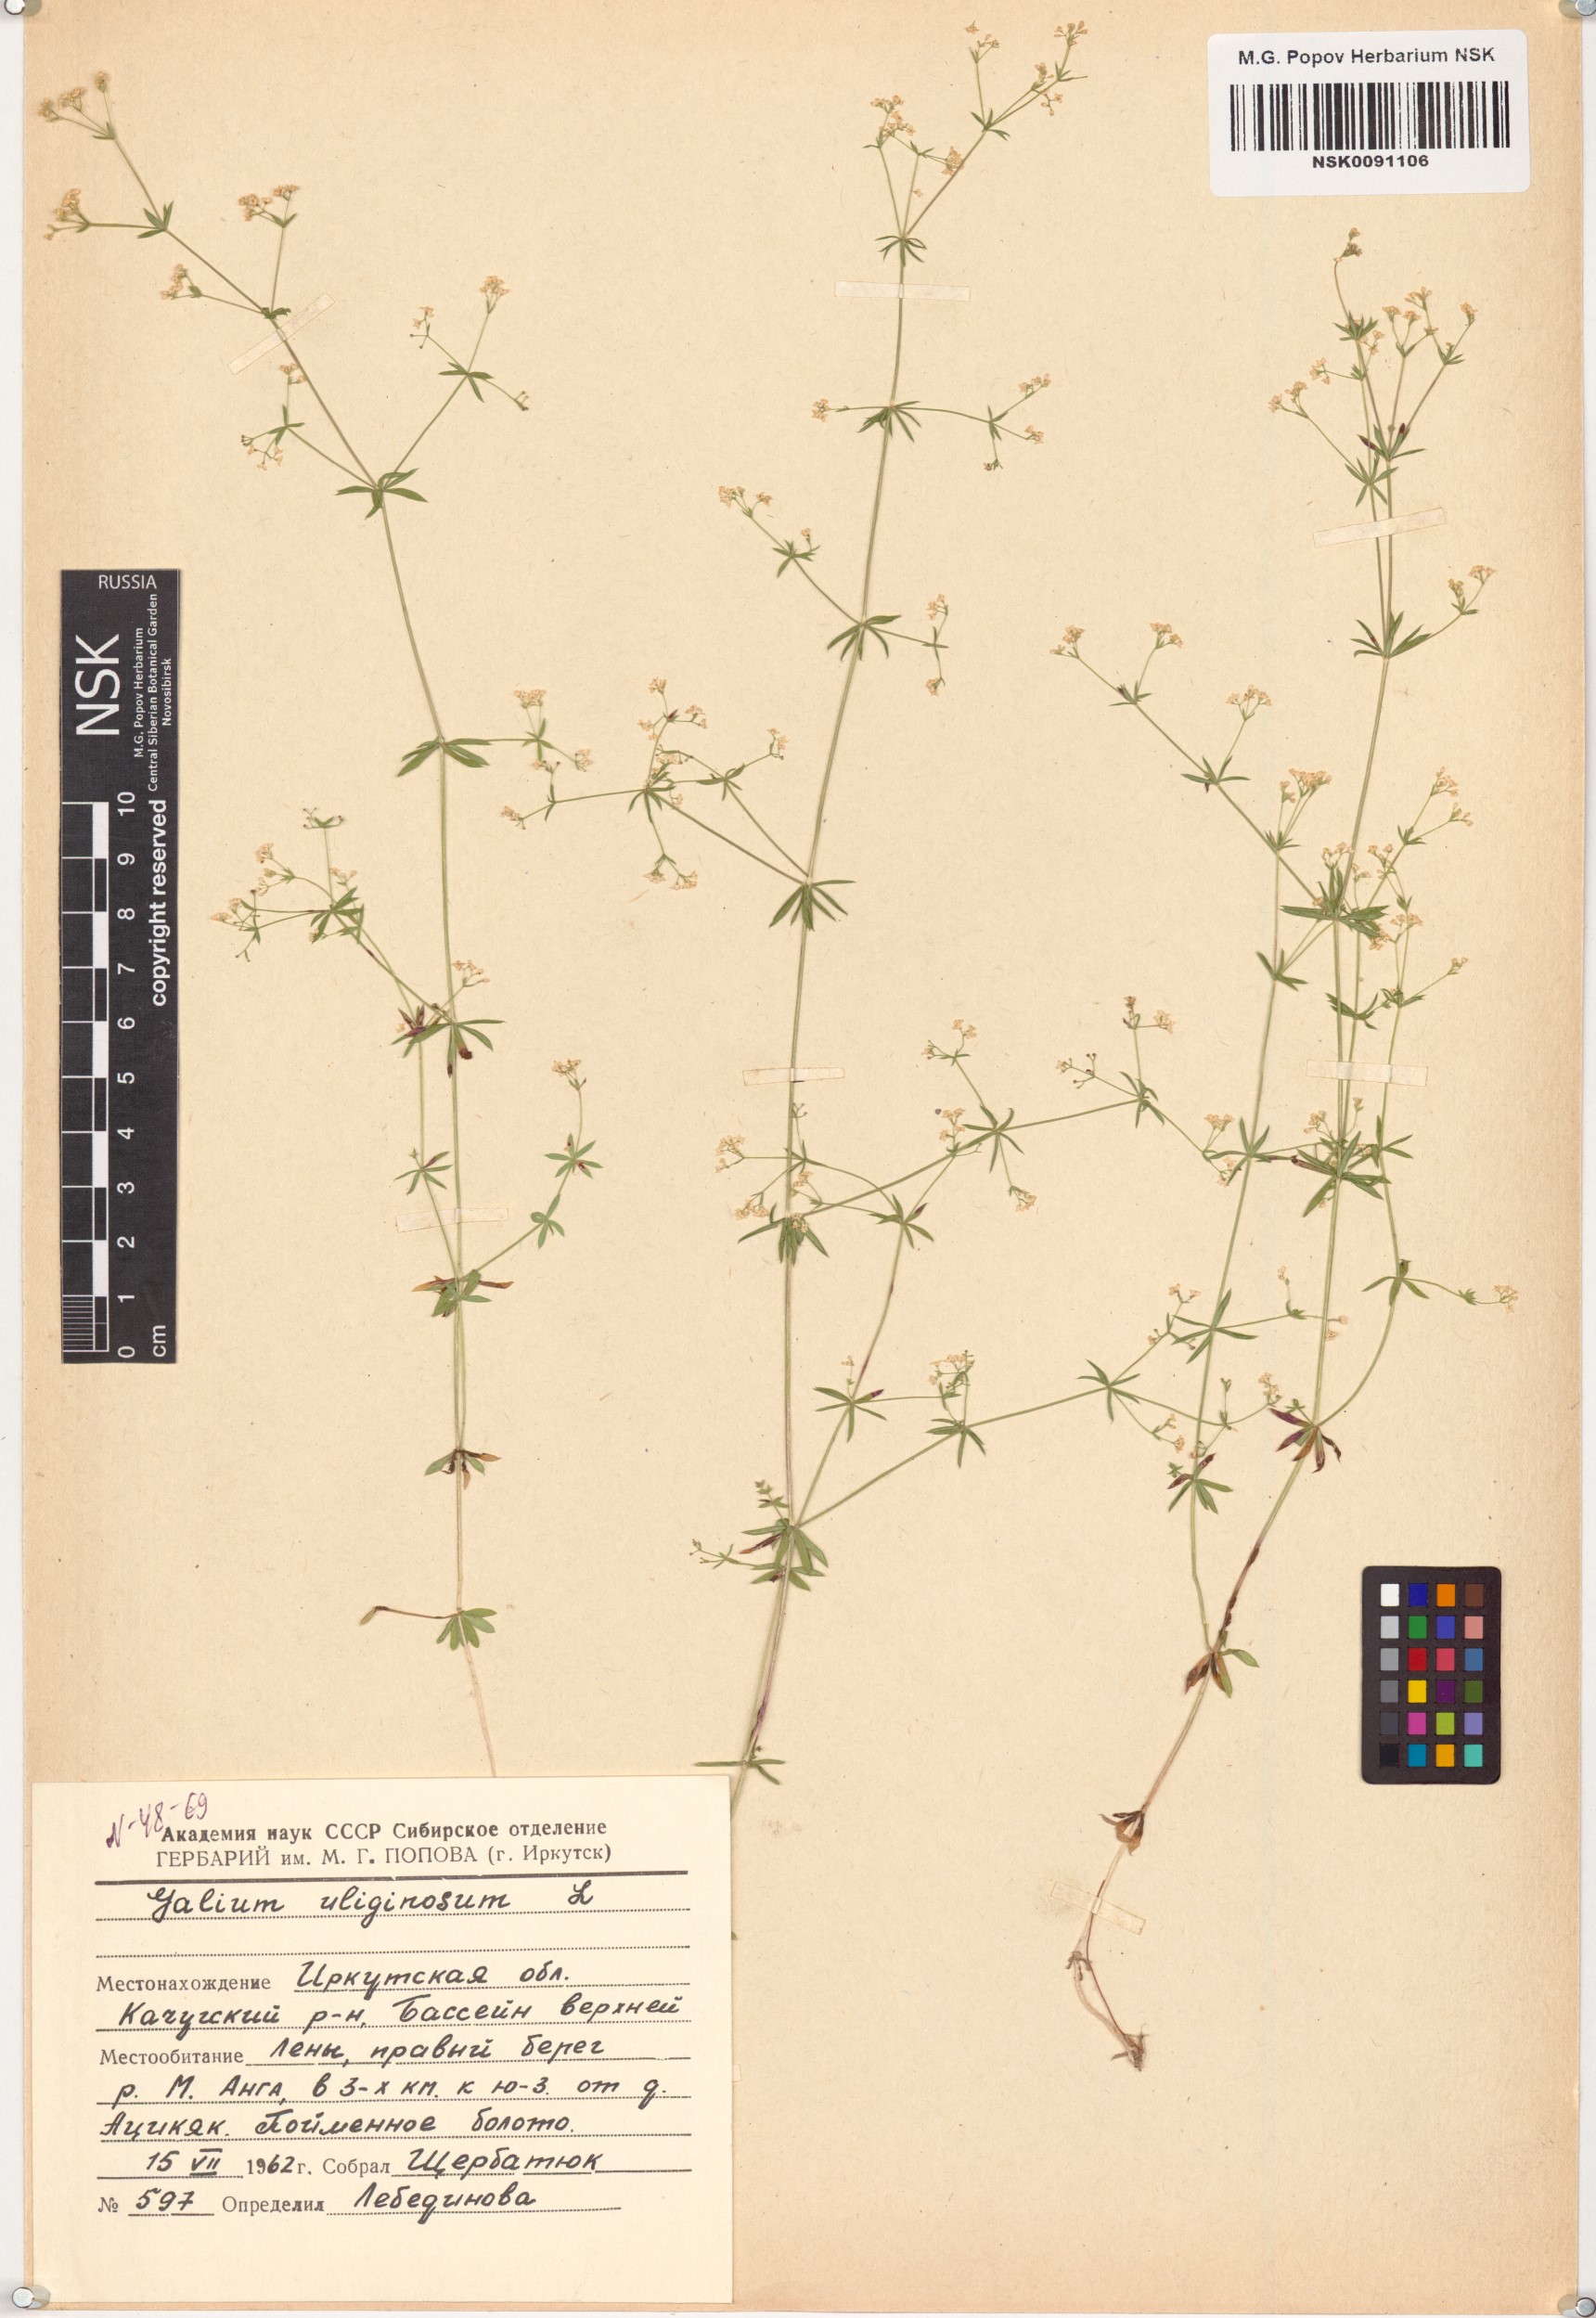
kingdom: Plantae
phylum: Tracheophyta
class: Magnoliopsida
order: Gentianales
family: Rubiaceae
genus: Galium
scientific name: Galium uliginosum
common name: Fen bedstraw
